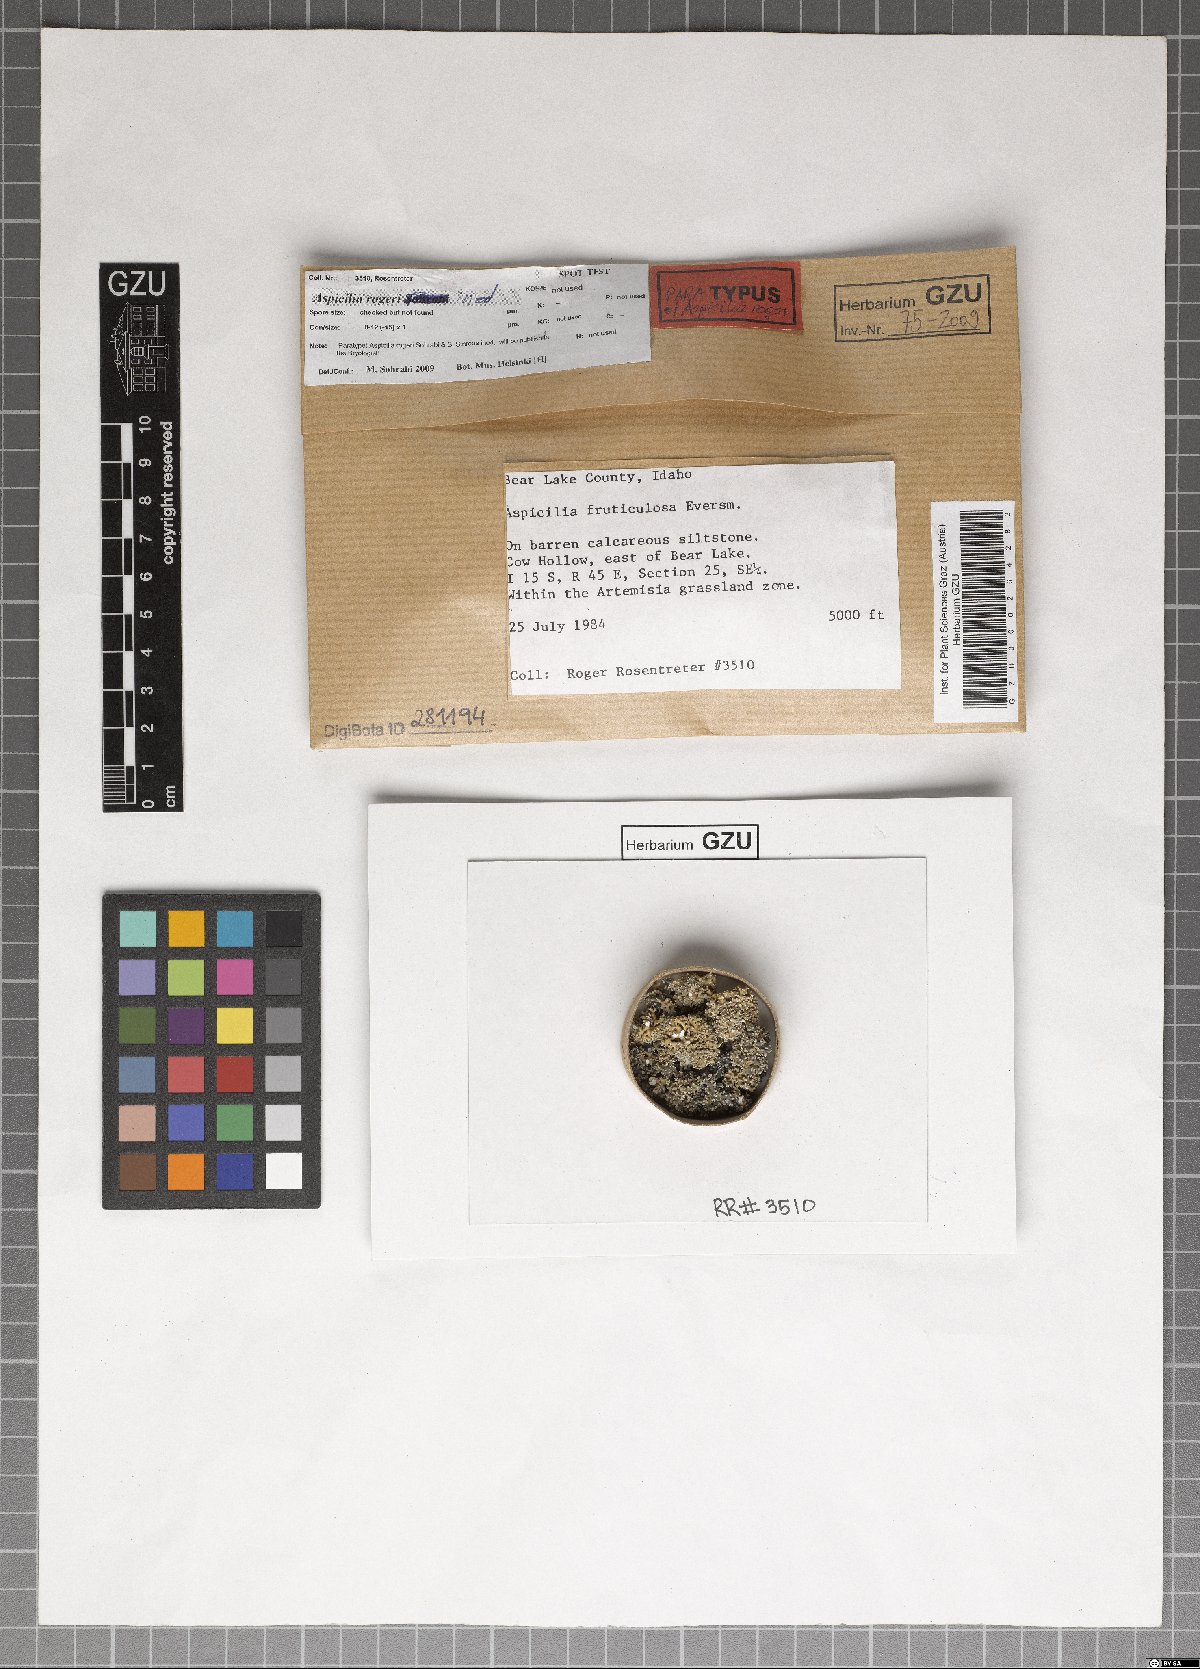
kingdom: Fungi
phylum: Ascomycota
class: Lecanoromycetes
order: Pertusariales
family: Megasporaceae
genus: Circinaria
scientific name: Circinaria rogeri
